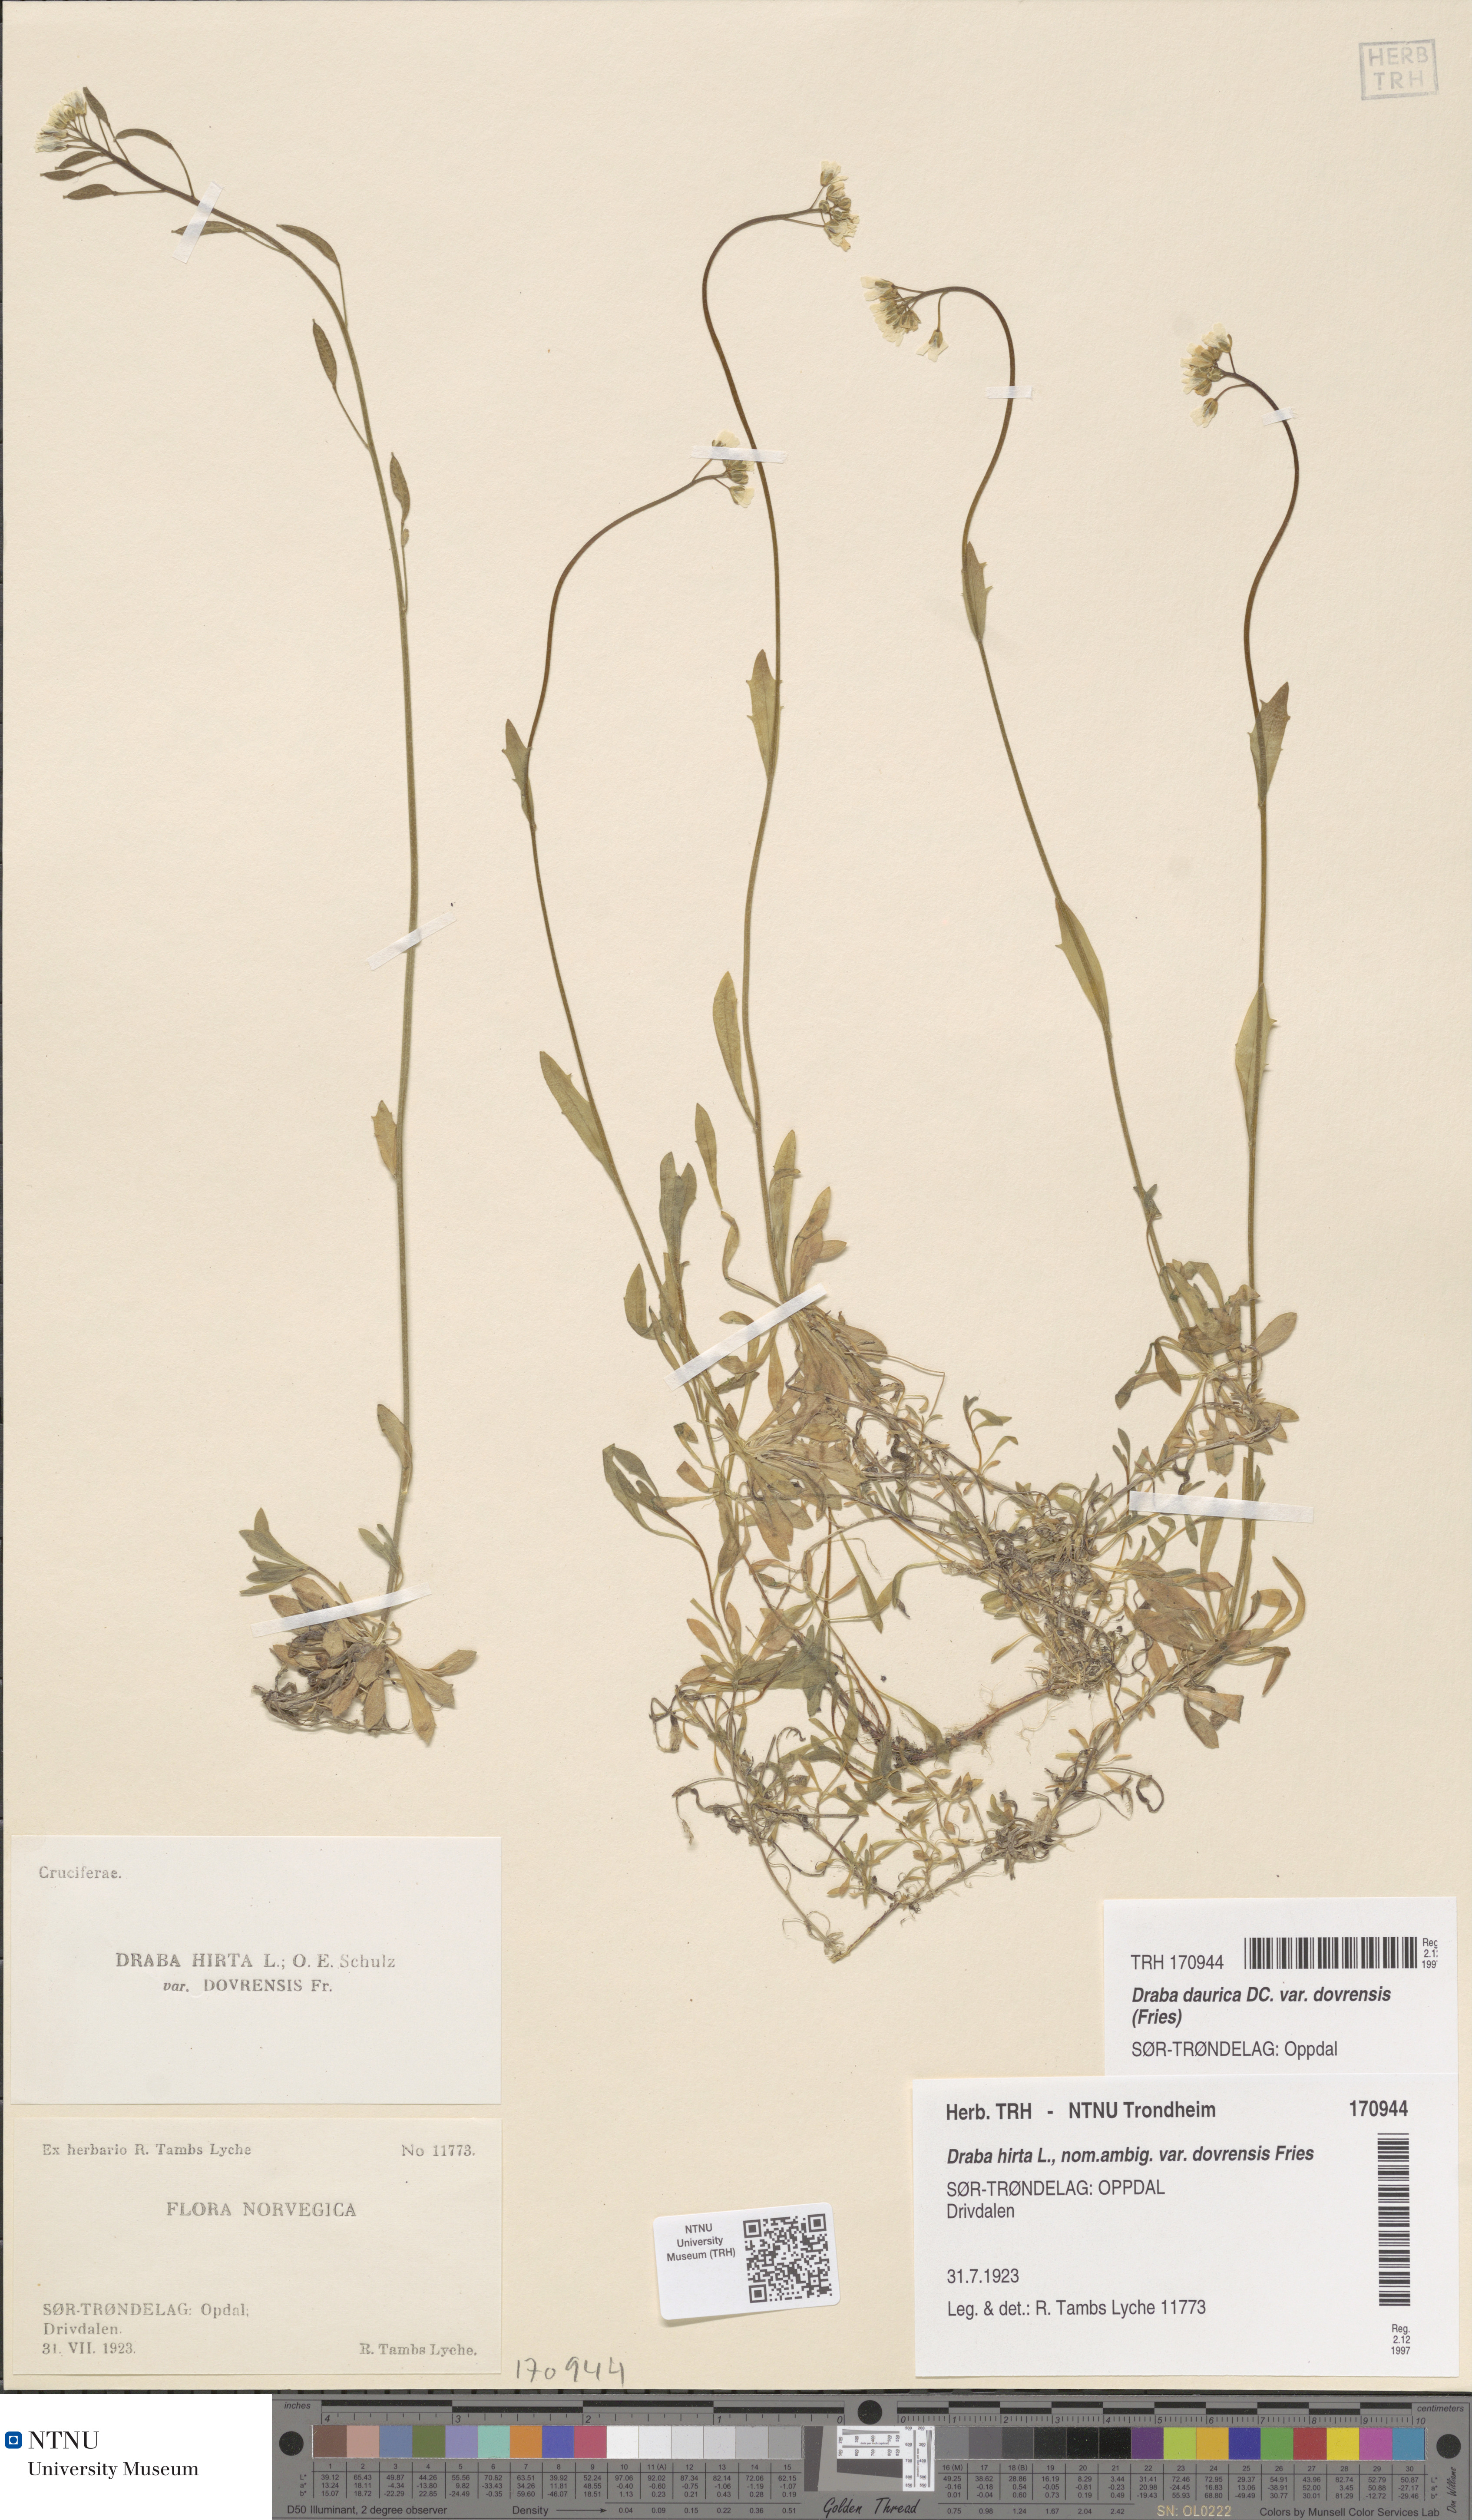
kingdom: Plantae
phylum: Tracheophyta
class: Magnoliopsida
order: Brassicales
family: Brassicaceae
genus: Draba
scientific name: Draba glabella
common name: Glaucous draba
